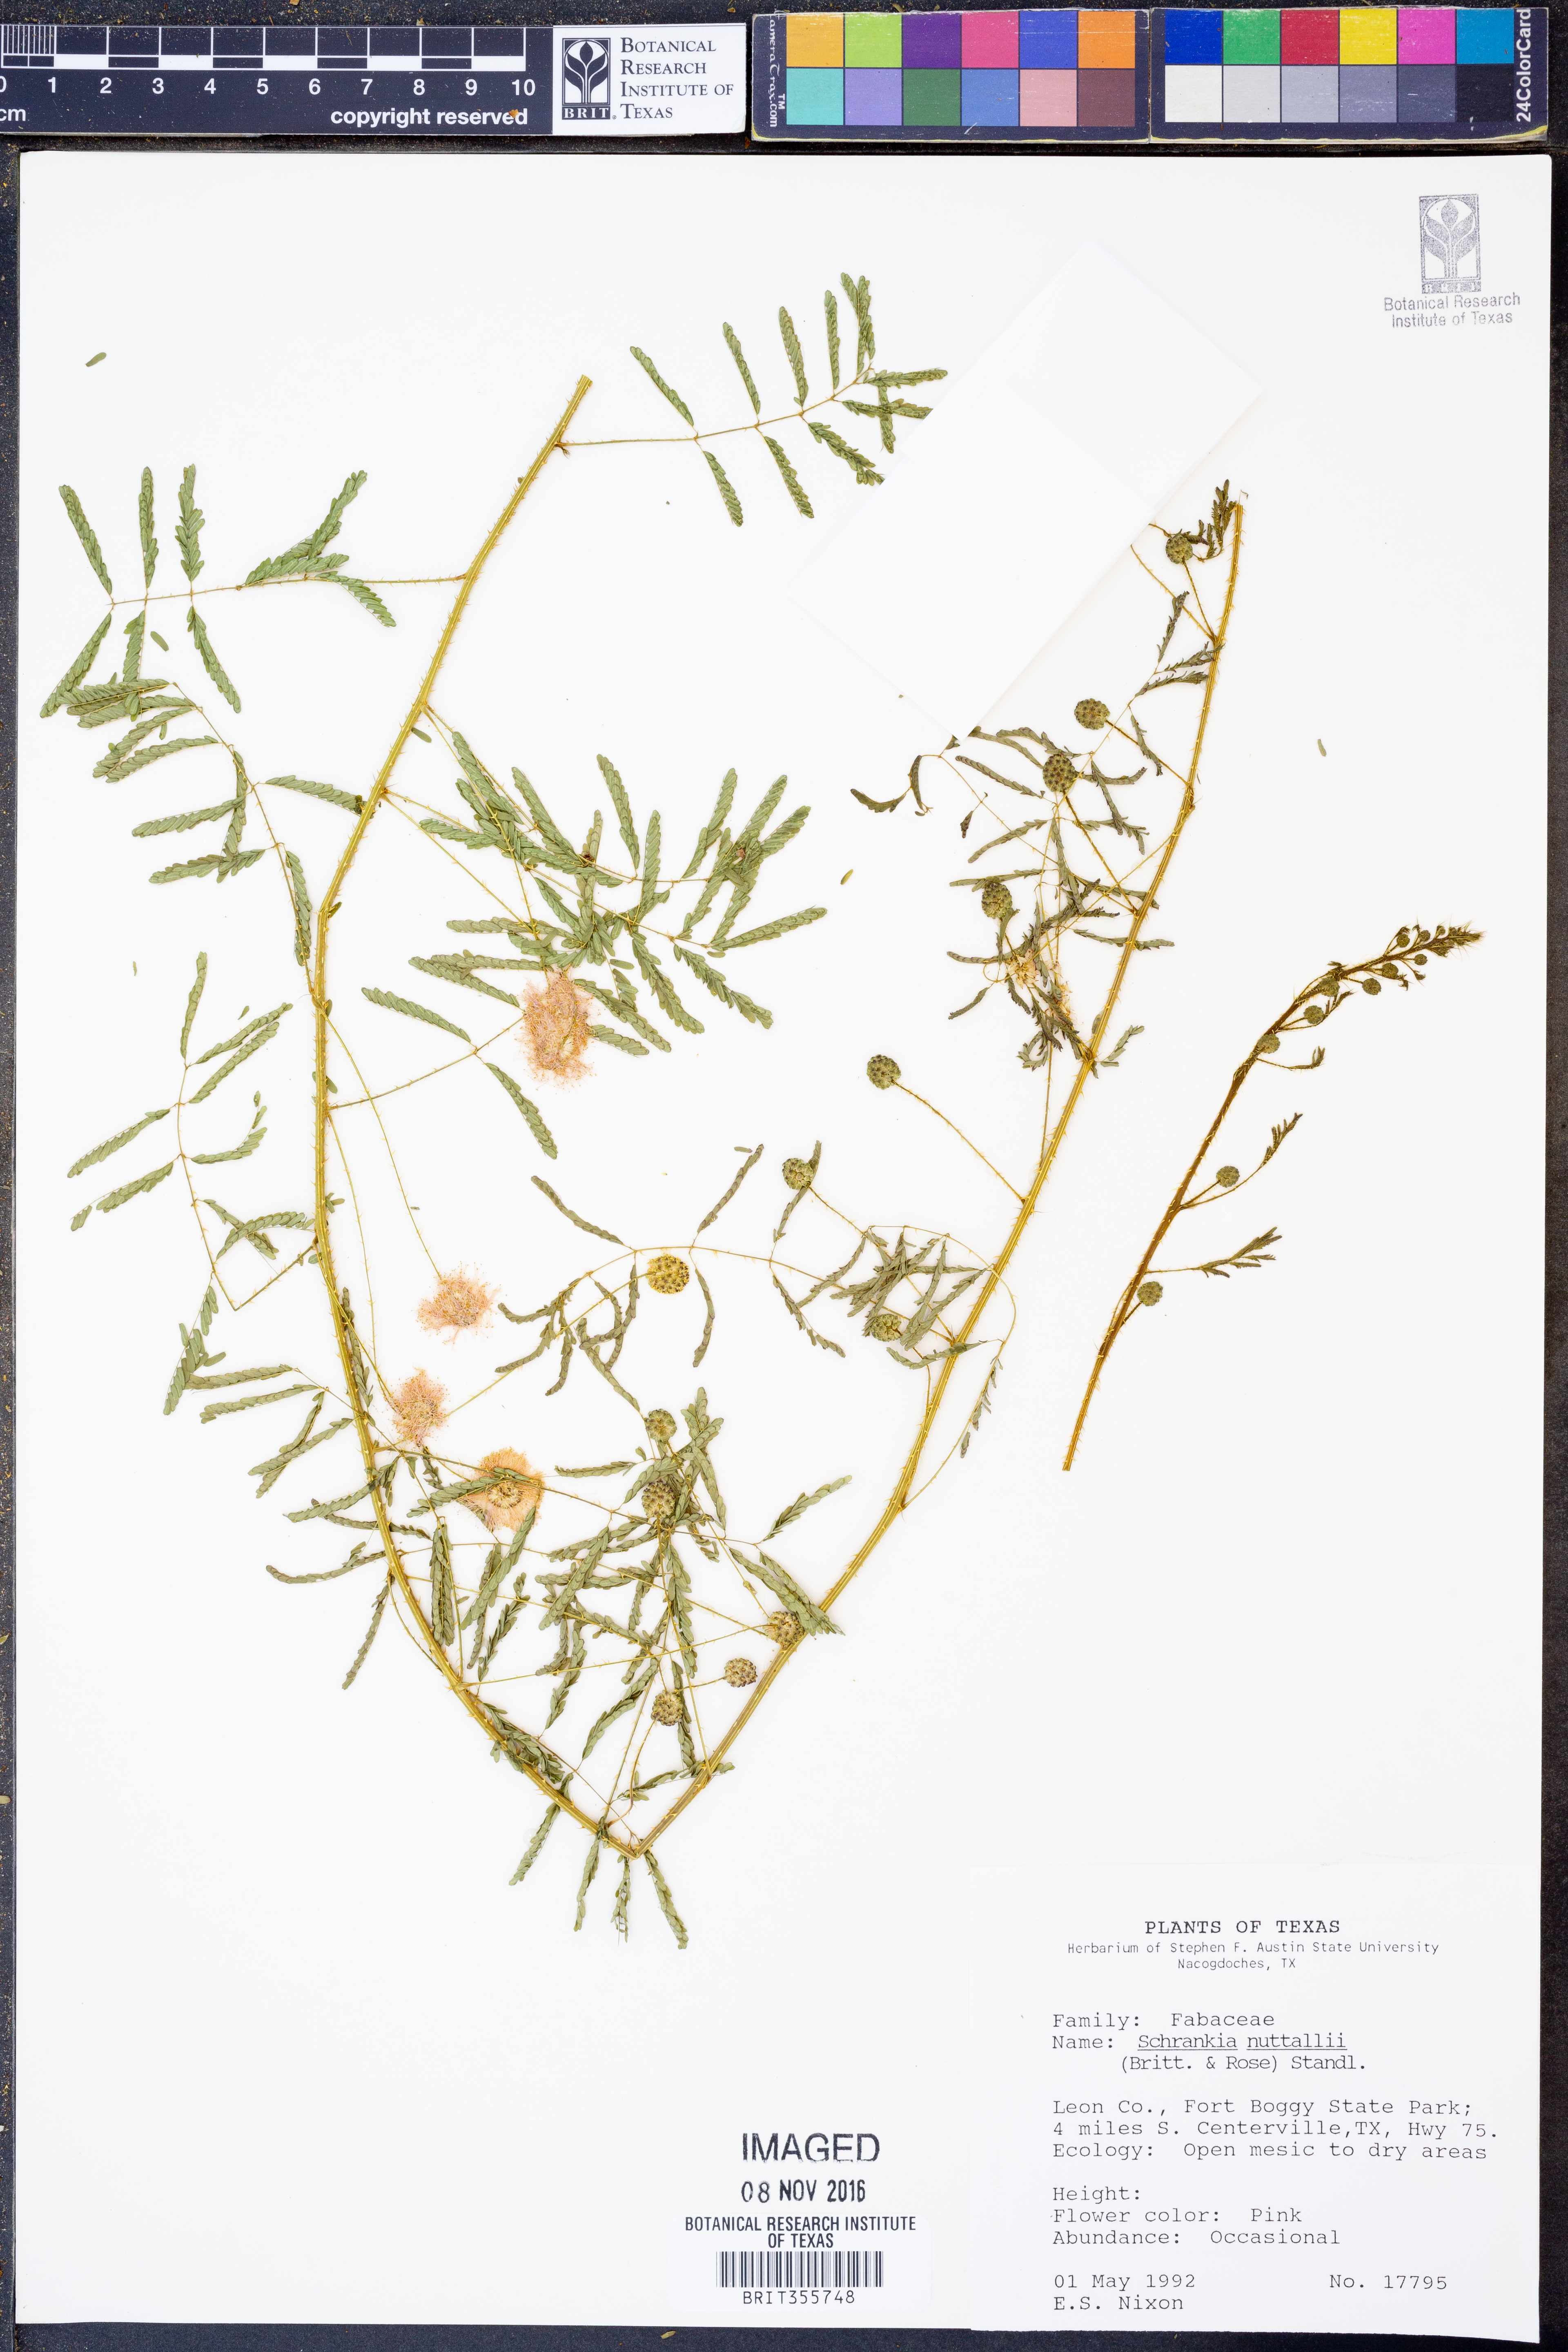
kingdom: Plantae
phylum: Tracheophyta
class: Magnoliopsida
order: Fabales
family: Fabaceae
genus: Mimosa
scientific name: Mimosa quadrivalvis
